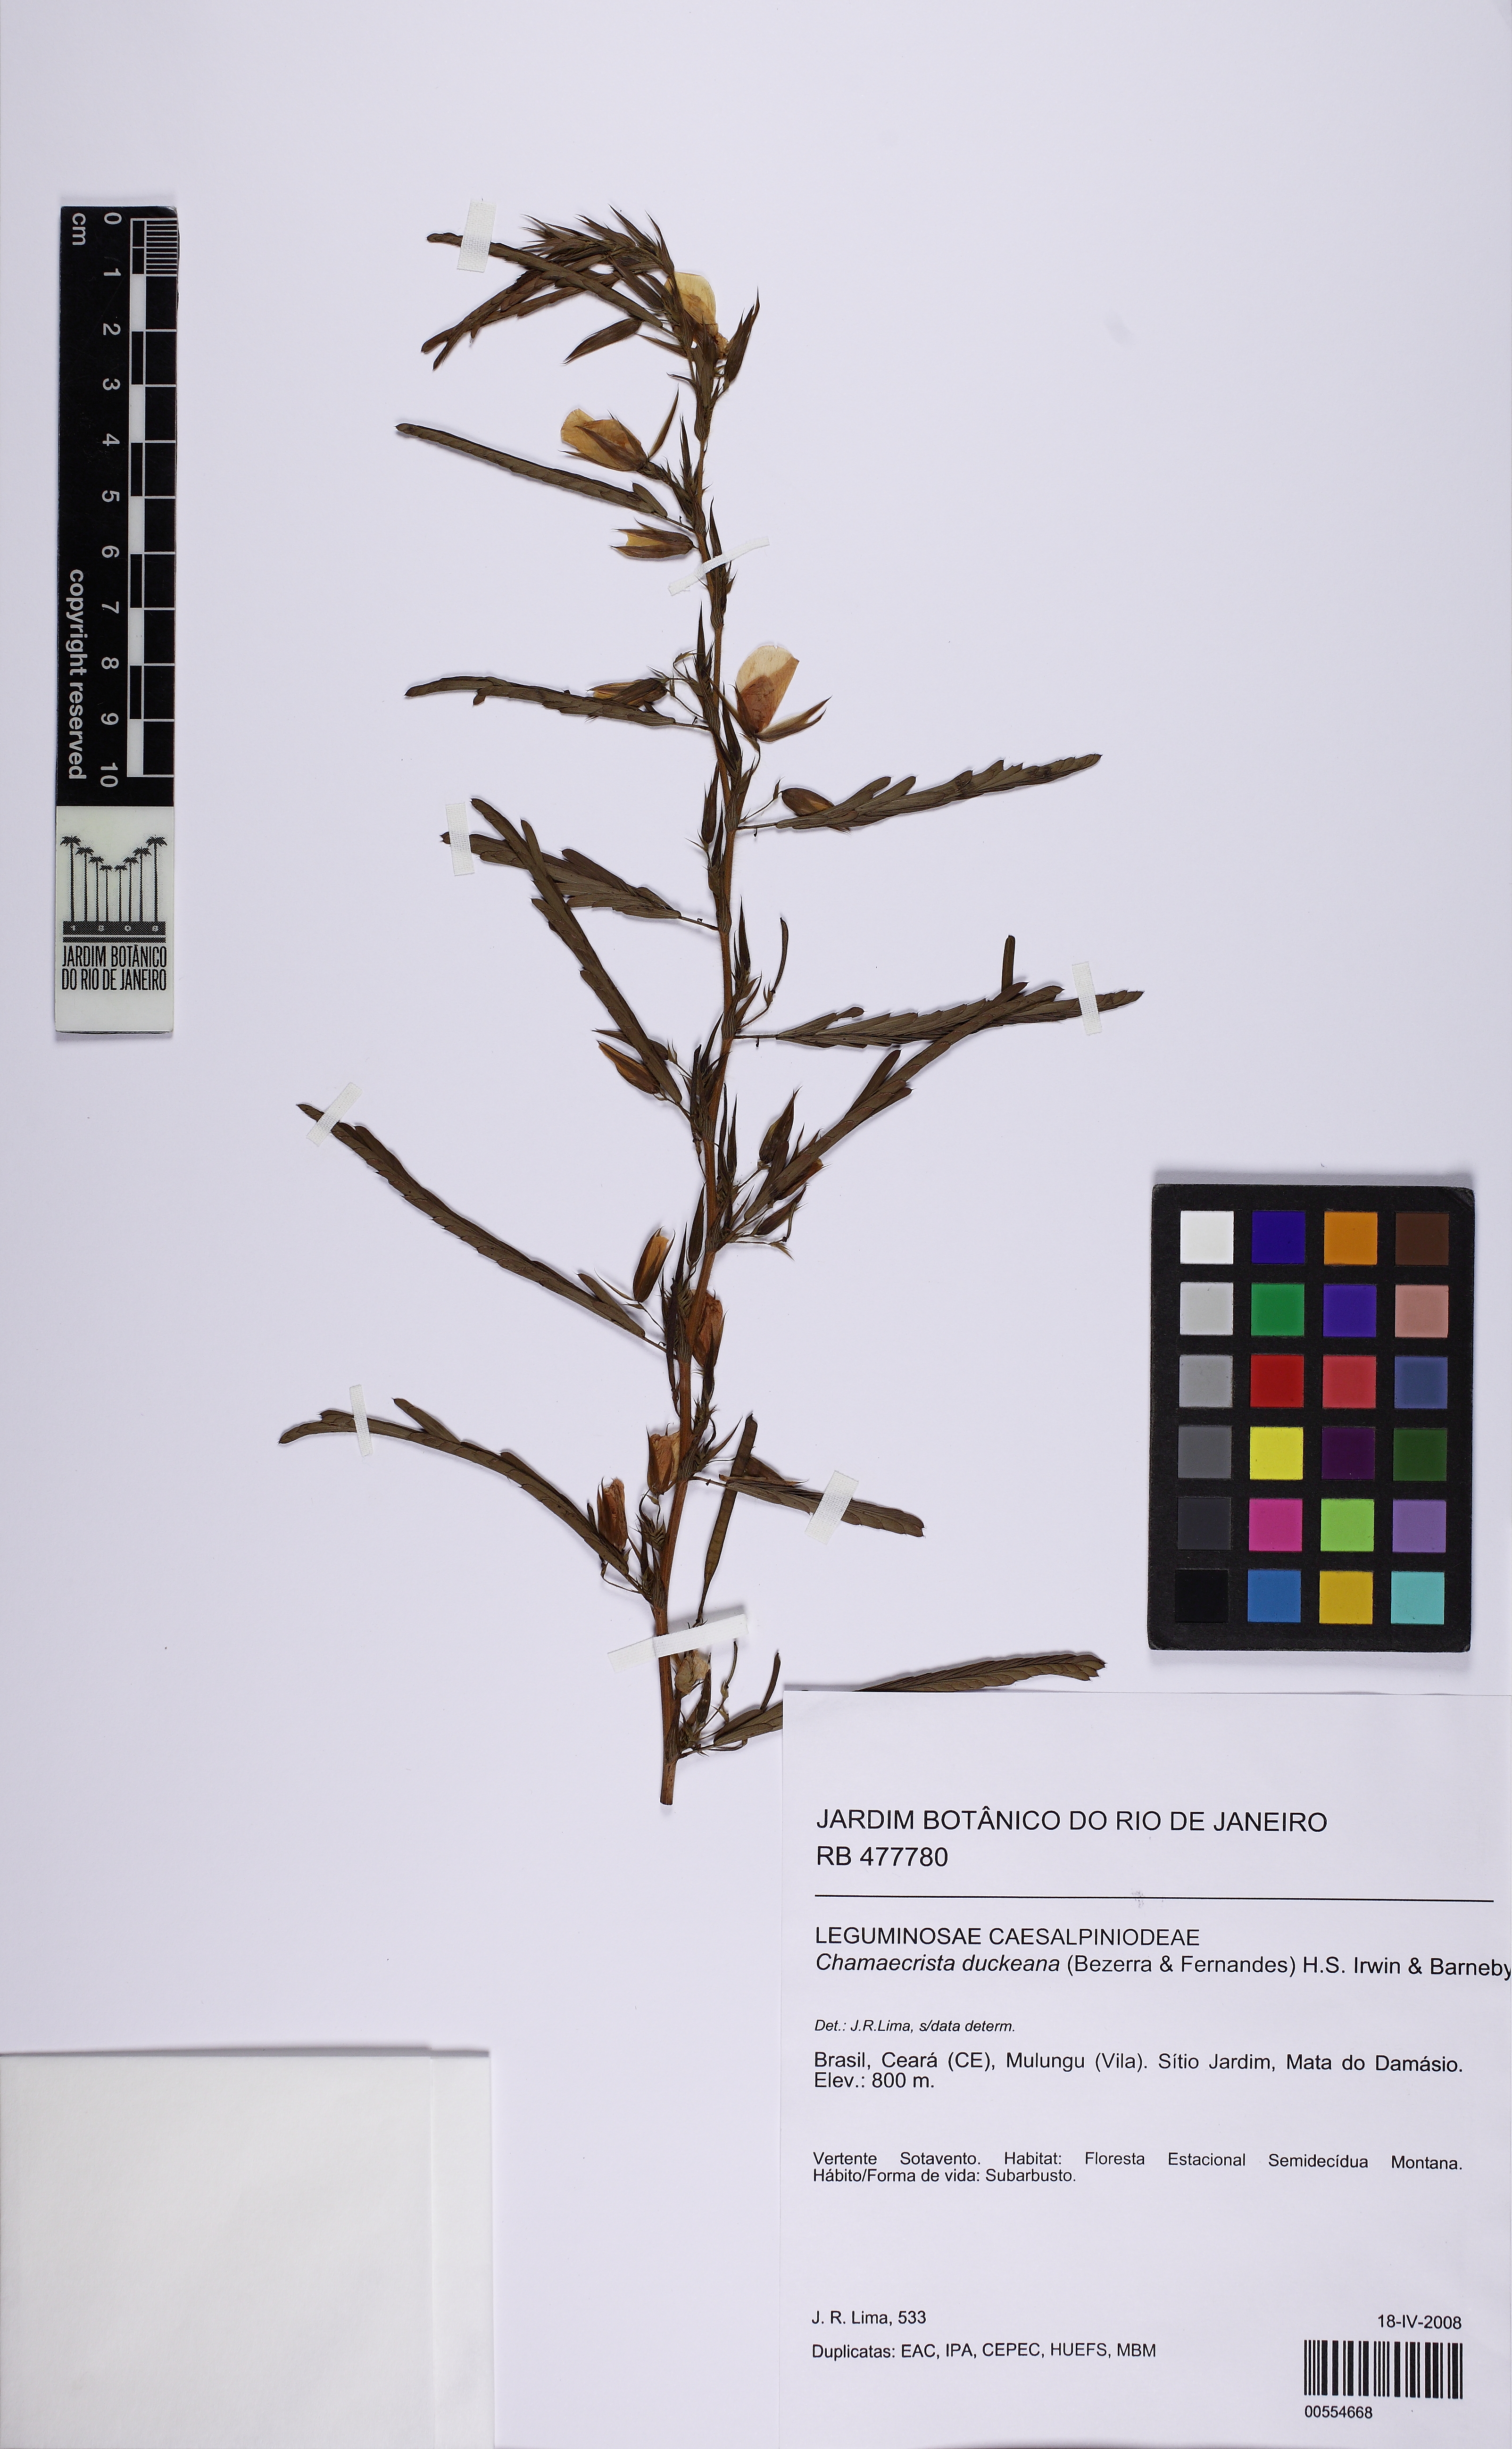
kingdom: Plantae
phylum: Tracheophyta
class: Magnoliopsida
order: Fabales
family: Fabaceae
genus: Chamaecrista
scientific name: Chamaecrista duckeana
